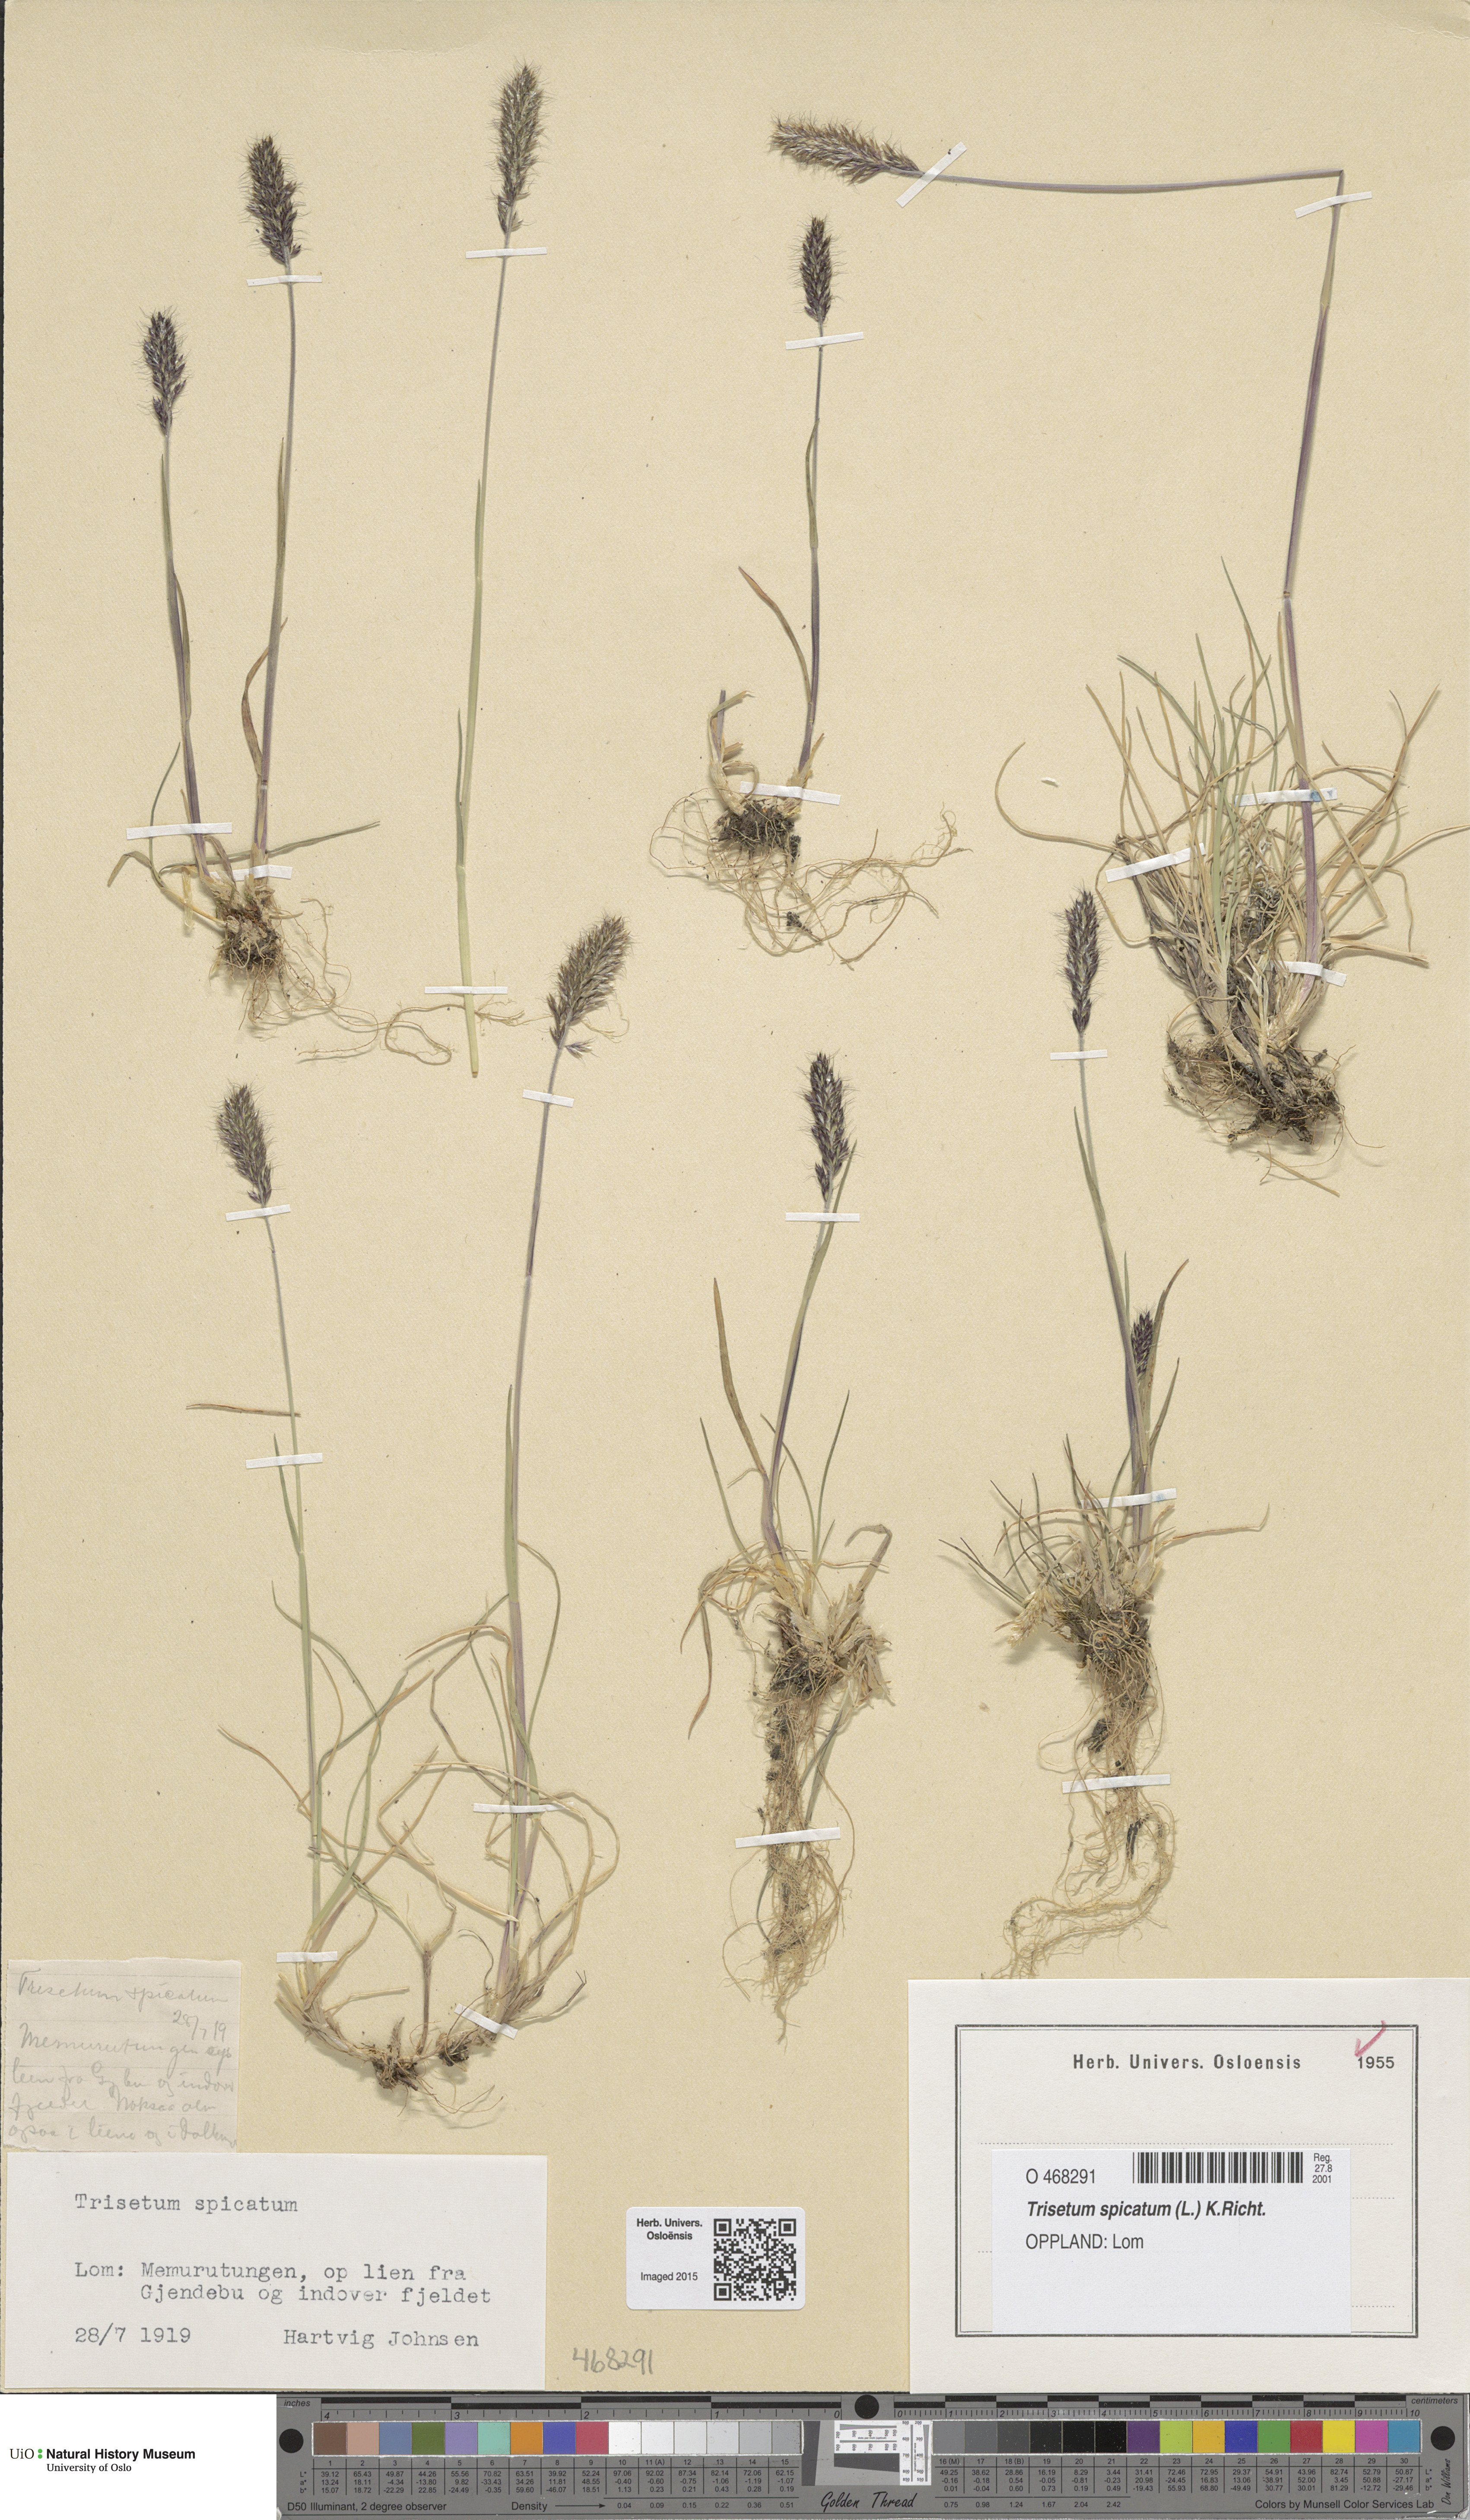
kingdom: Plantae
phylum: Tracheophyta
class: Liliopsida
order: Poales
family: Poaceae
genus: Koeleria
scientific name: Koeleria spicata
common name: Mountain trisetum
